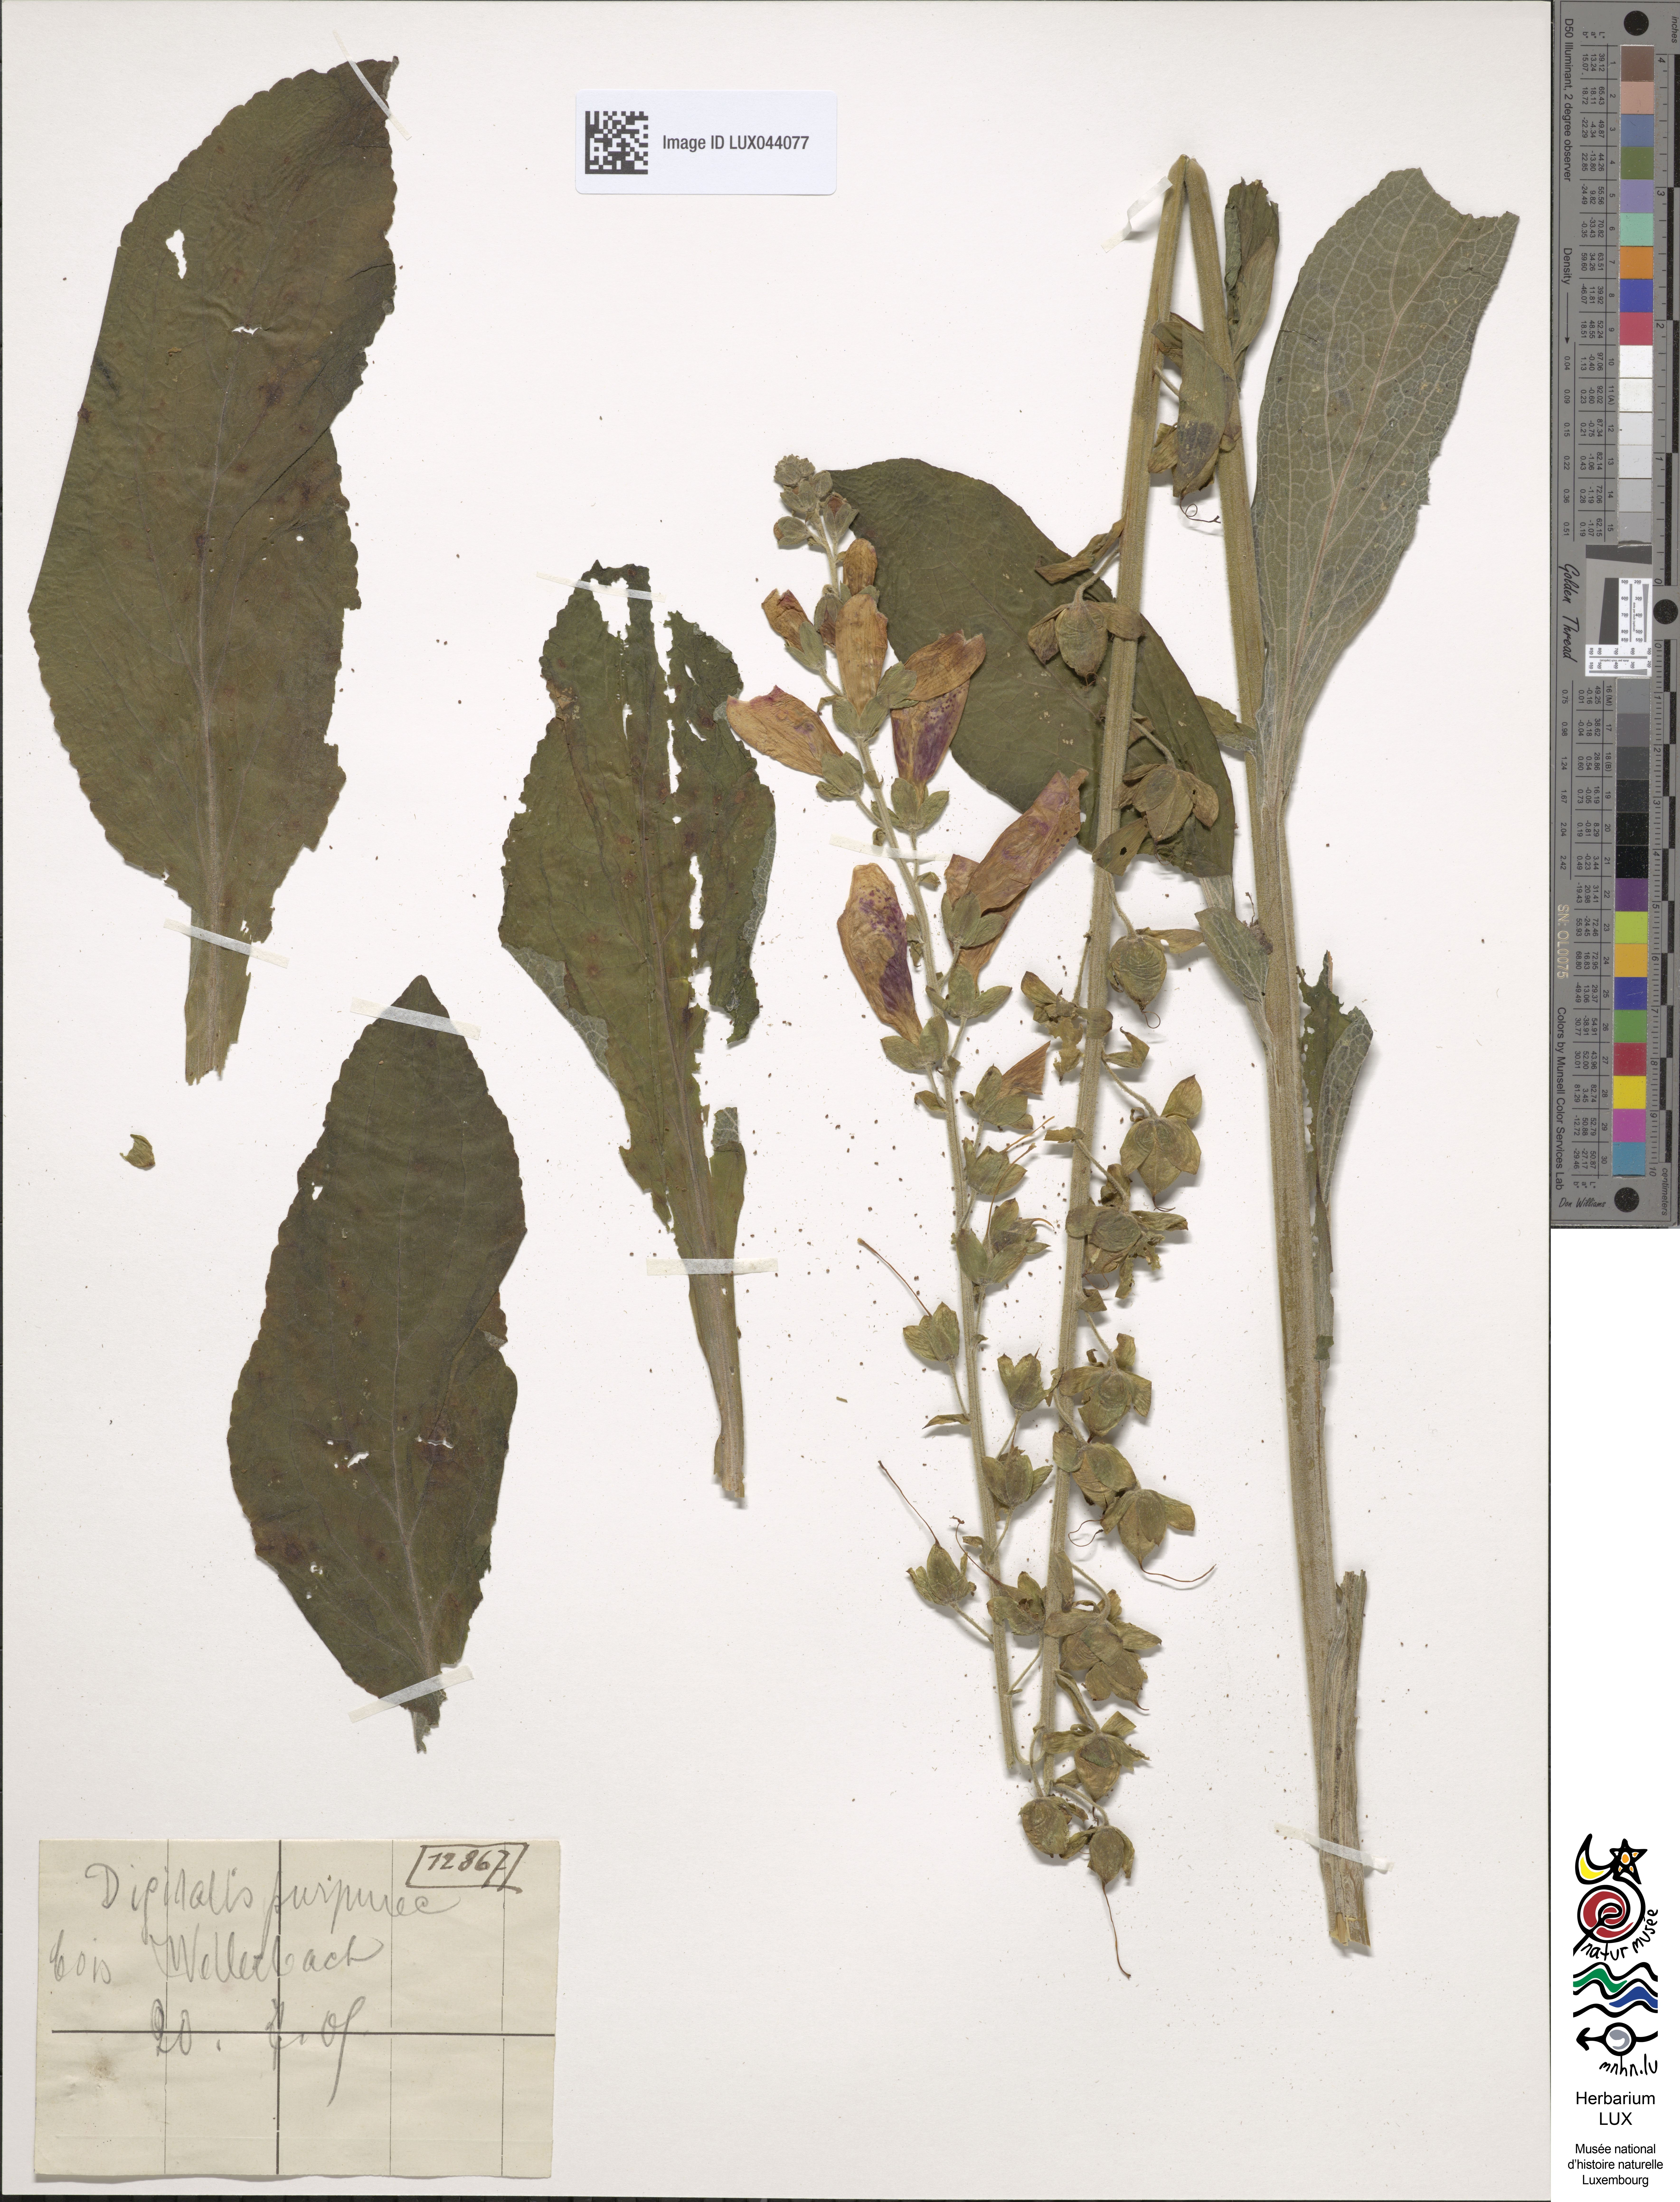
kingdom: Plantae
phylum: Tracheophyta
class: Magnoliopsida
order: Lamiales
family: Plantaginaceae
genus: Digitalis
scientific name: Digitalis purpurea
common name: Foxglove
